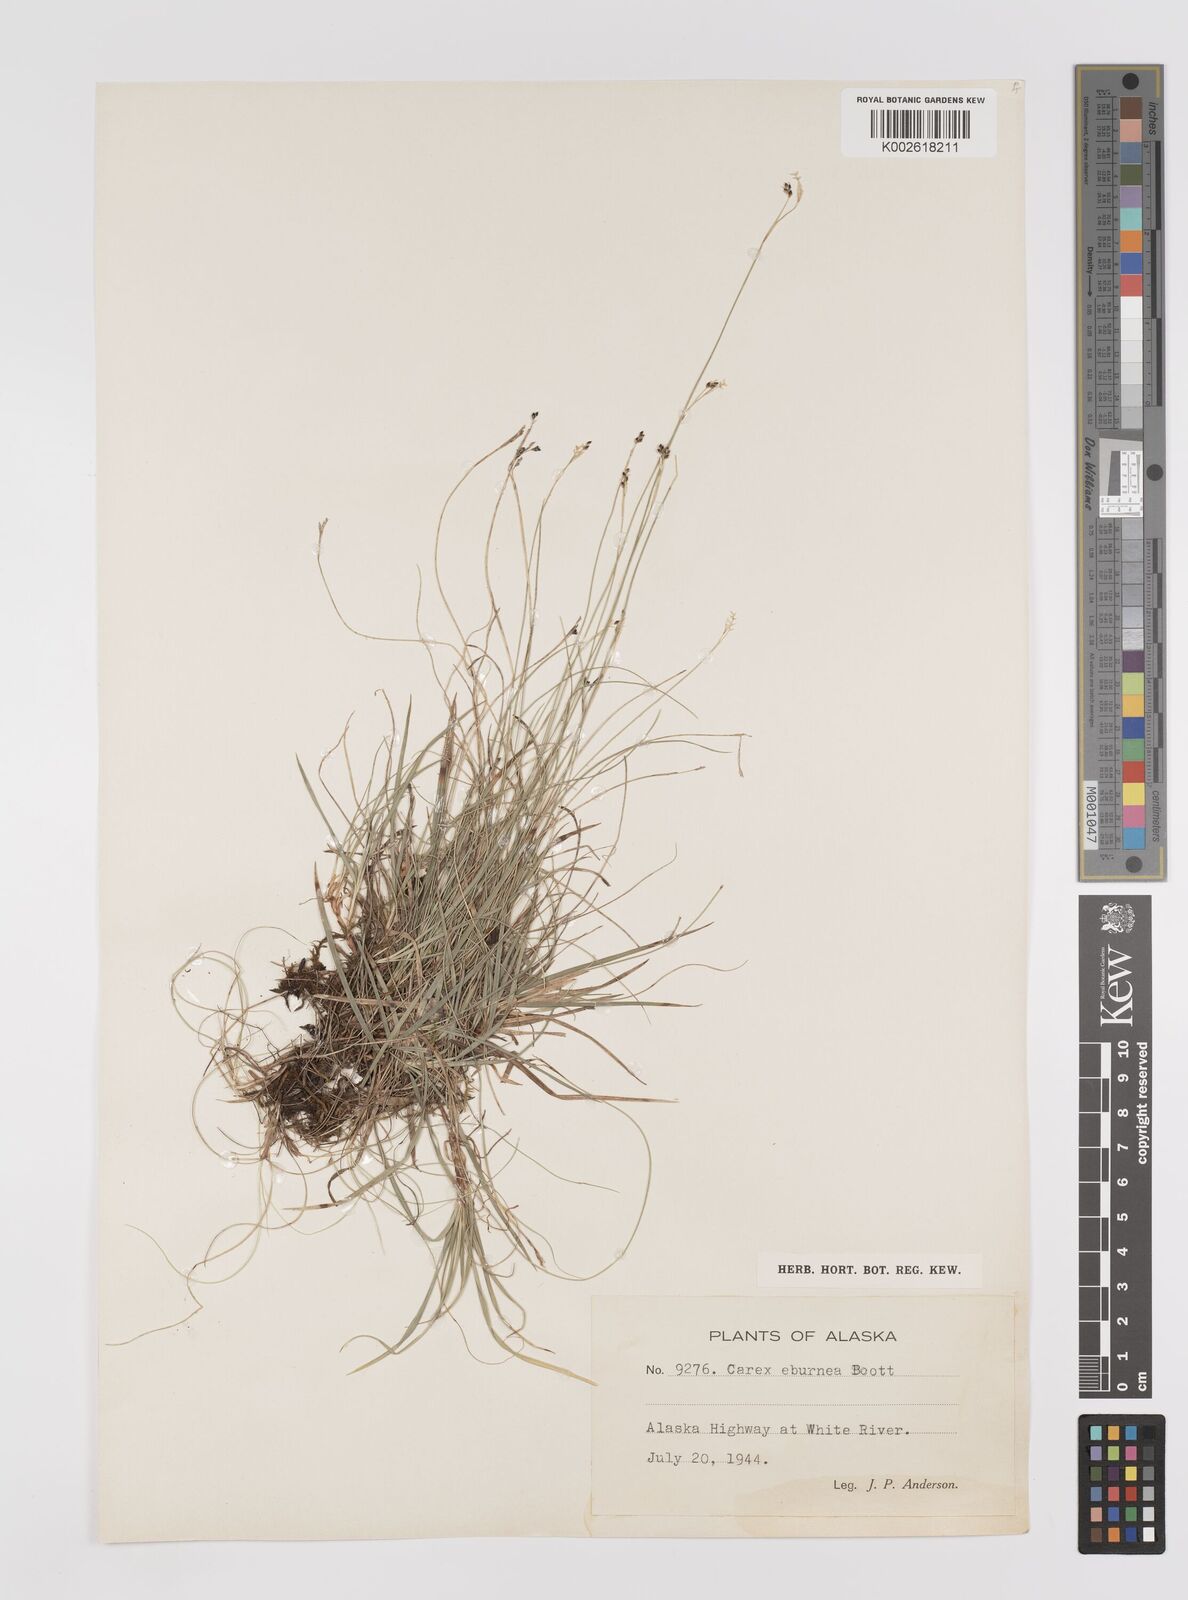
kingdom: Plantae
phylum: Tracheophyta
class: Liliopsida
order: Poales
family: Cyperaceae
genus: Carex
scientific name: Carex eburnea
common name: Bristle-leaved sedge
